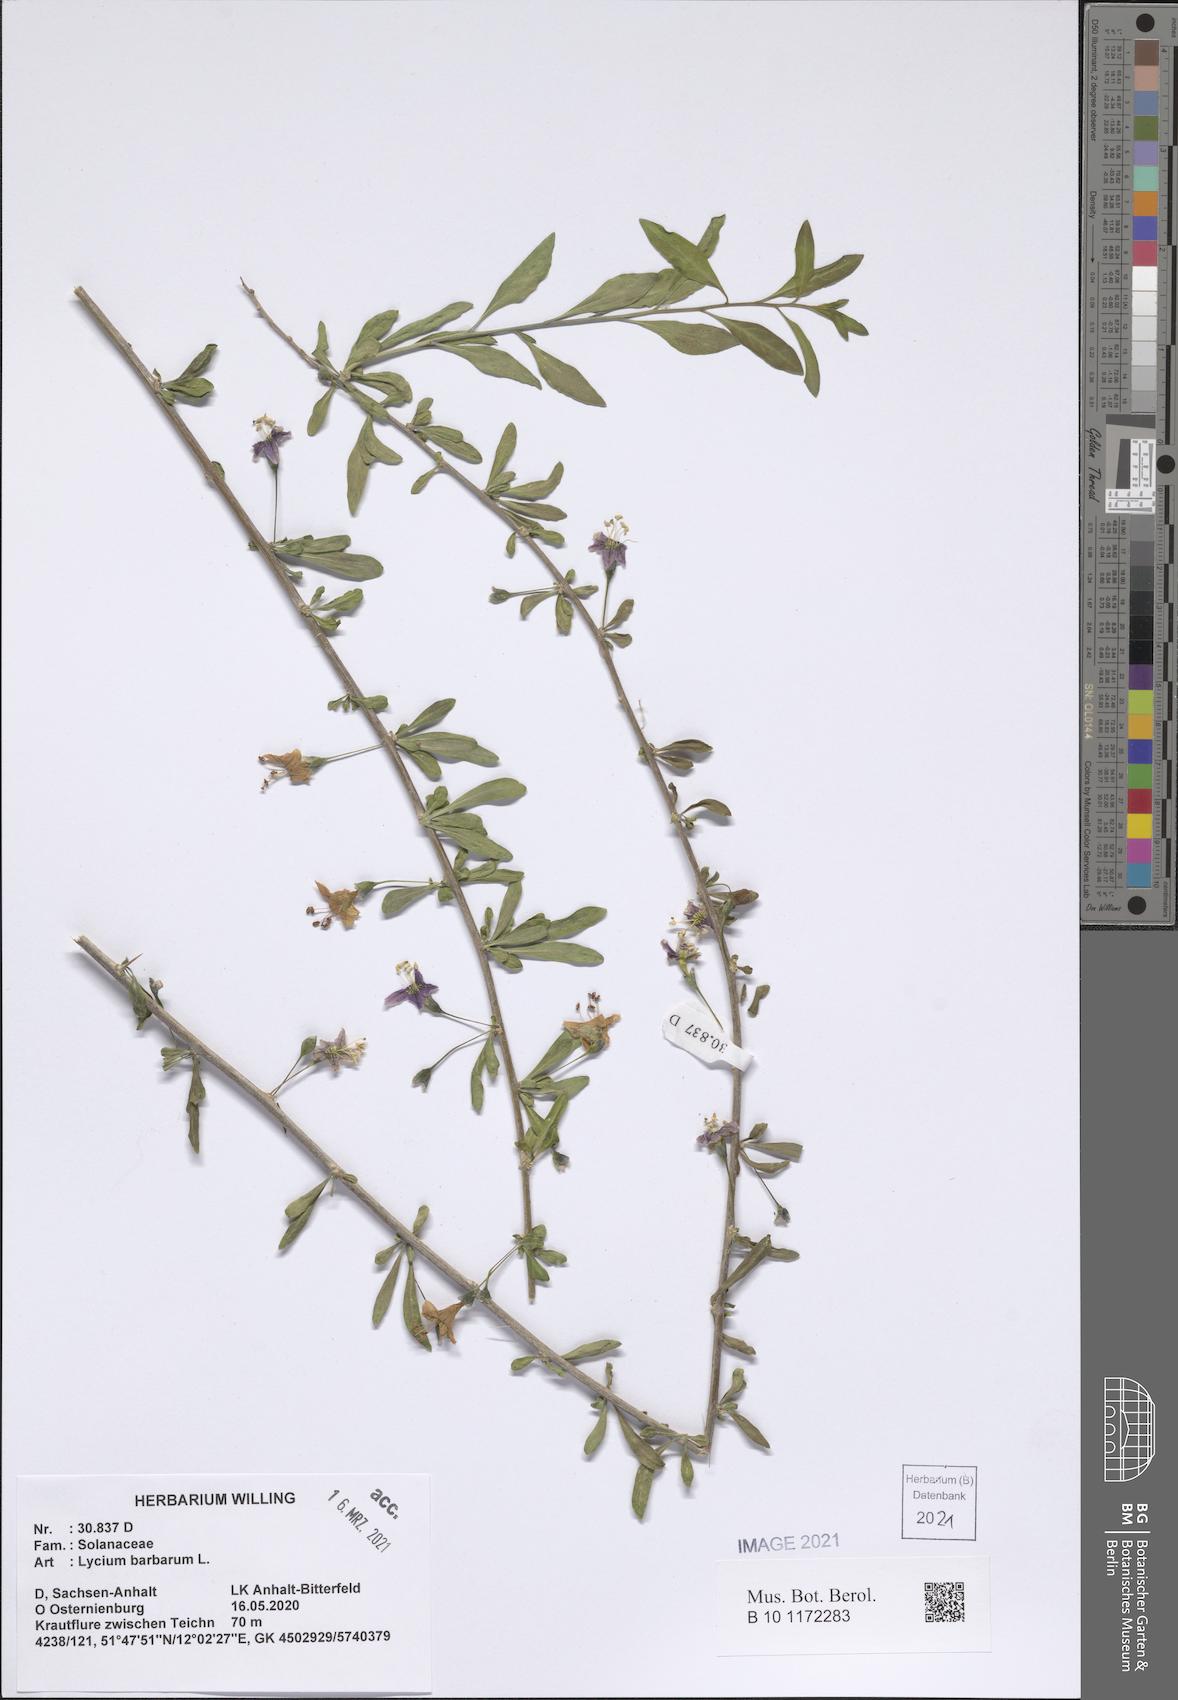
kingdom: Plantae
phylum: Tracheophyta
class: Magnoliopsida
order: Solanales
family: Solanaceae
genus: Lycium
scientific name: Lycium barbarum
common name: Duke of argyll's teaplant
